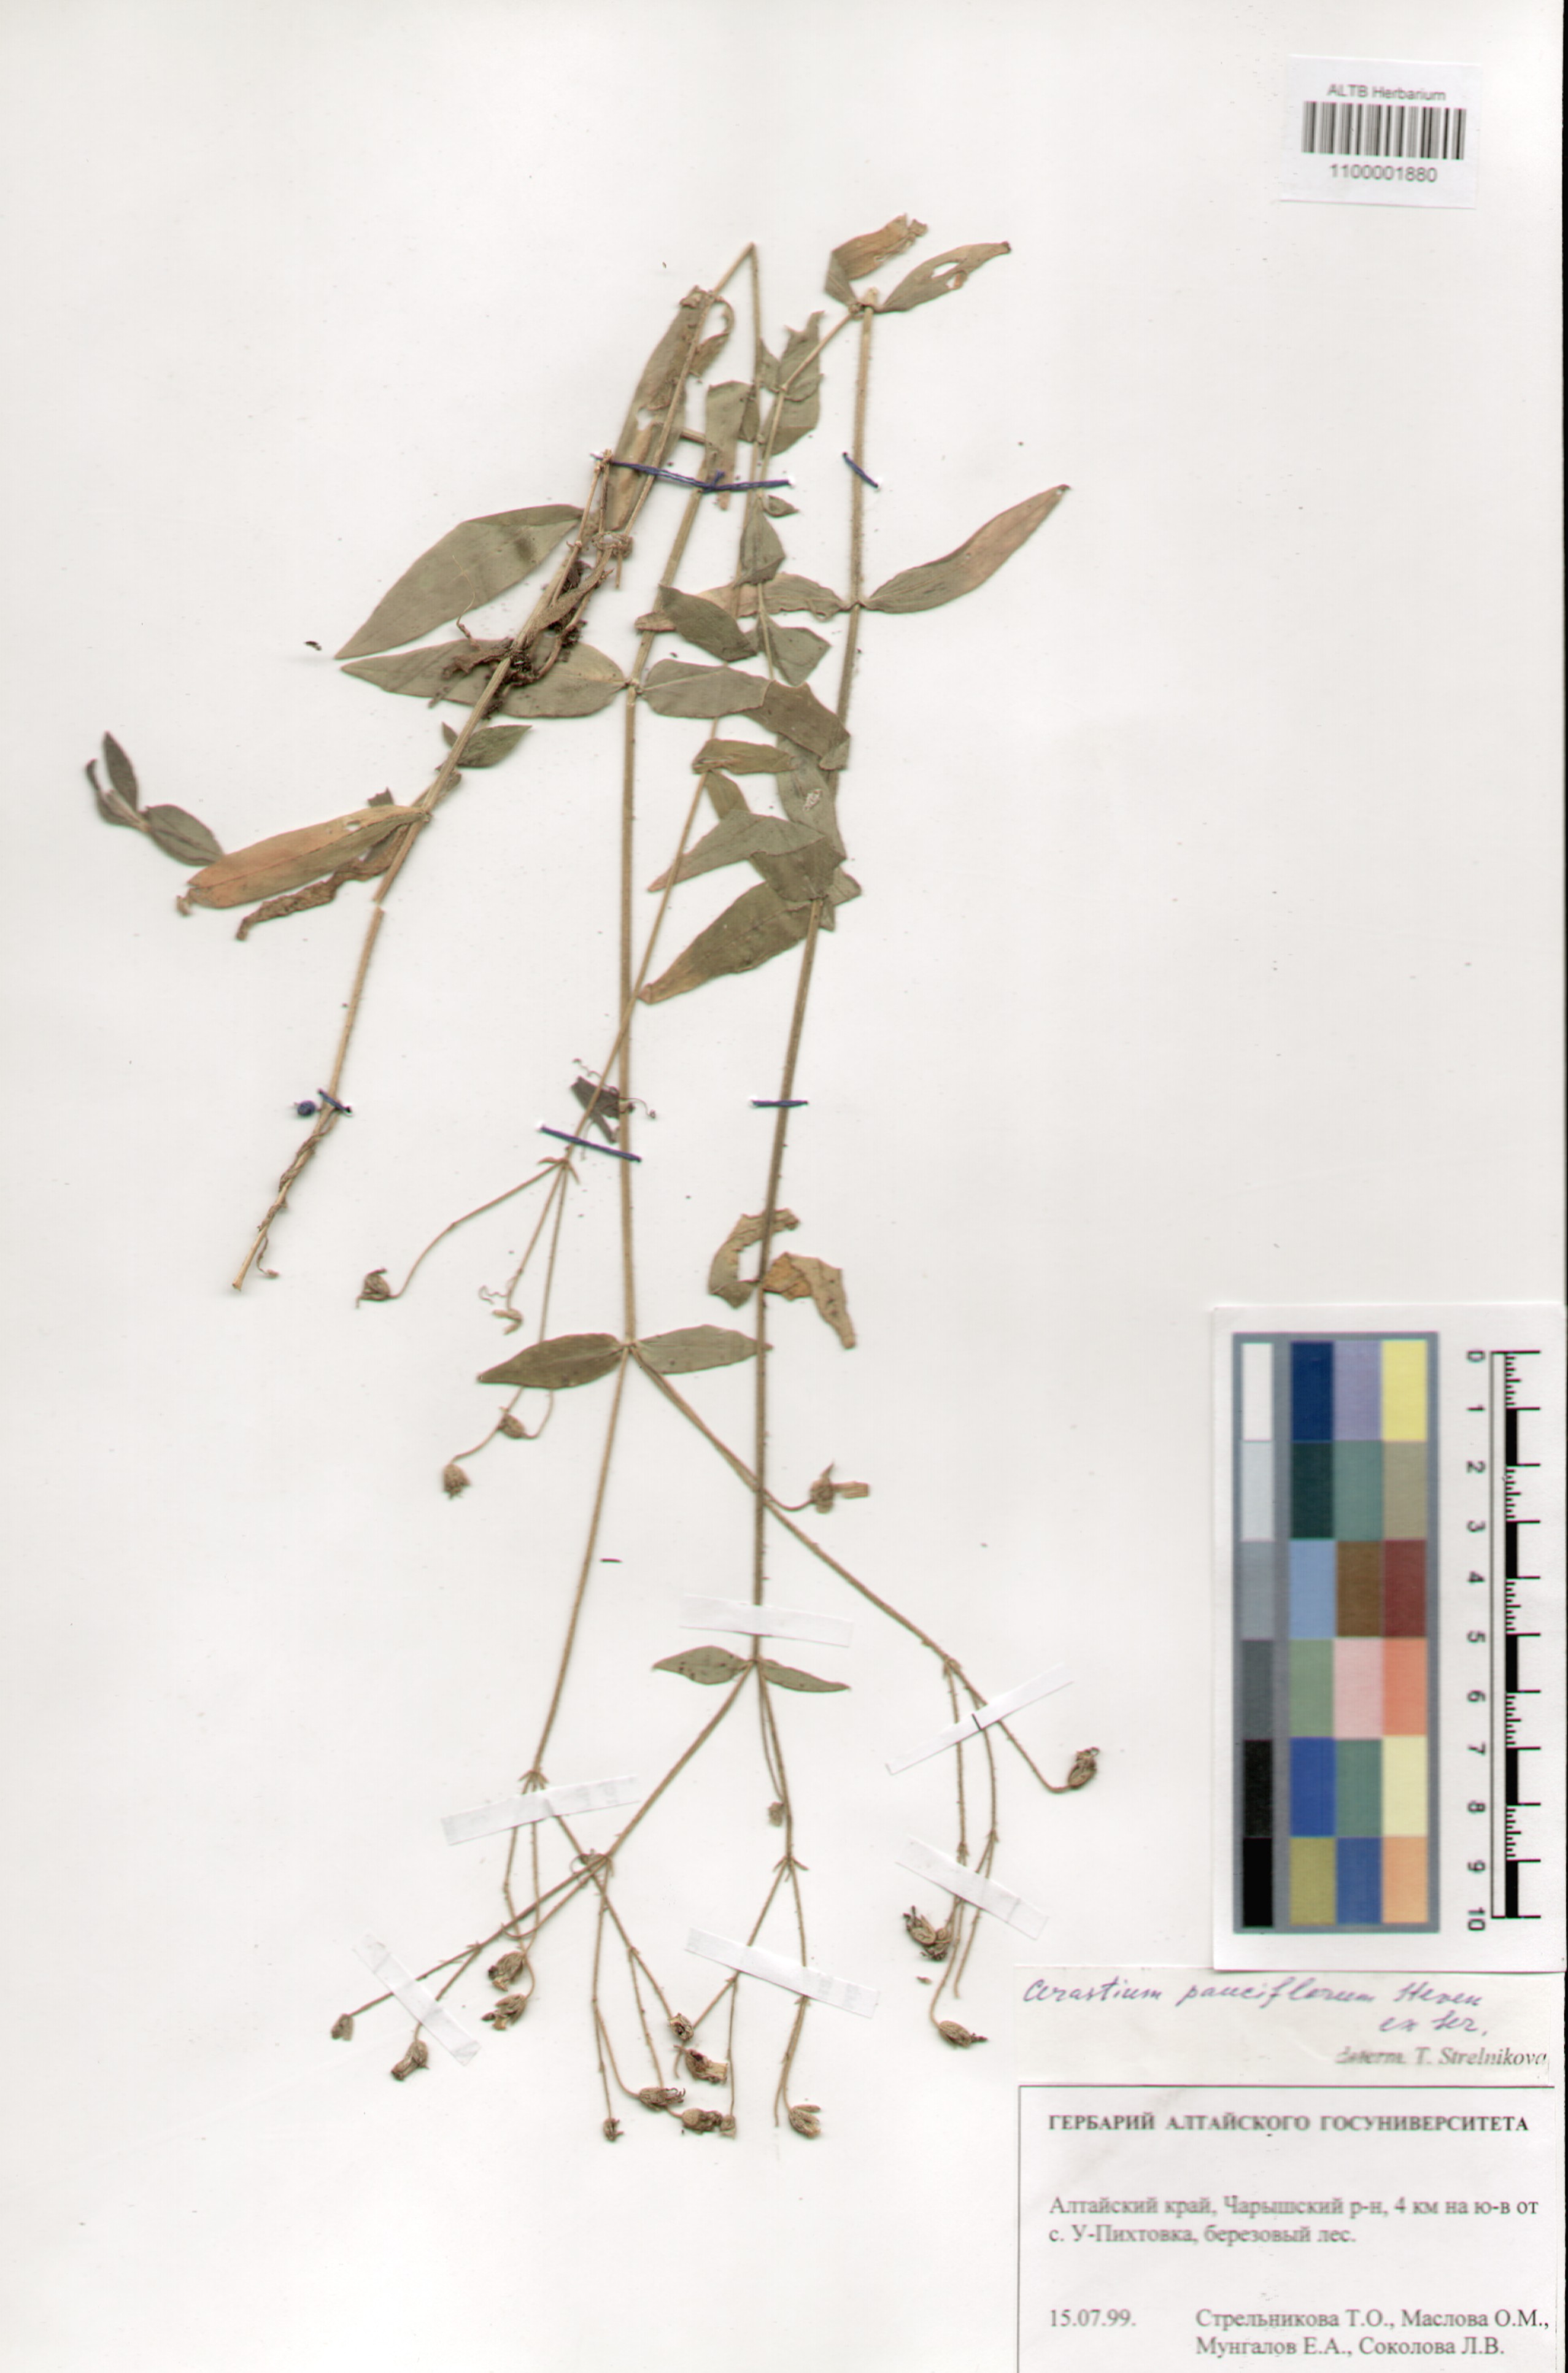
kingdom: Plantae
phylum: Tracheophyta
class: Magnoliopsida
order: Caryophyllales
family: Caryophyllaceae
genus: Cerastium
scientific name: Cerastium pauciflorum
